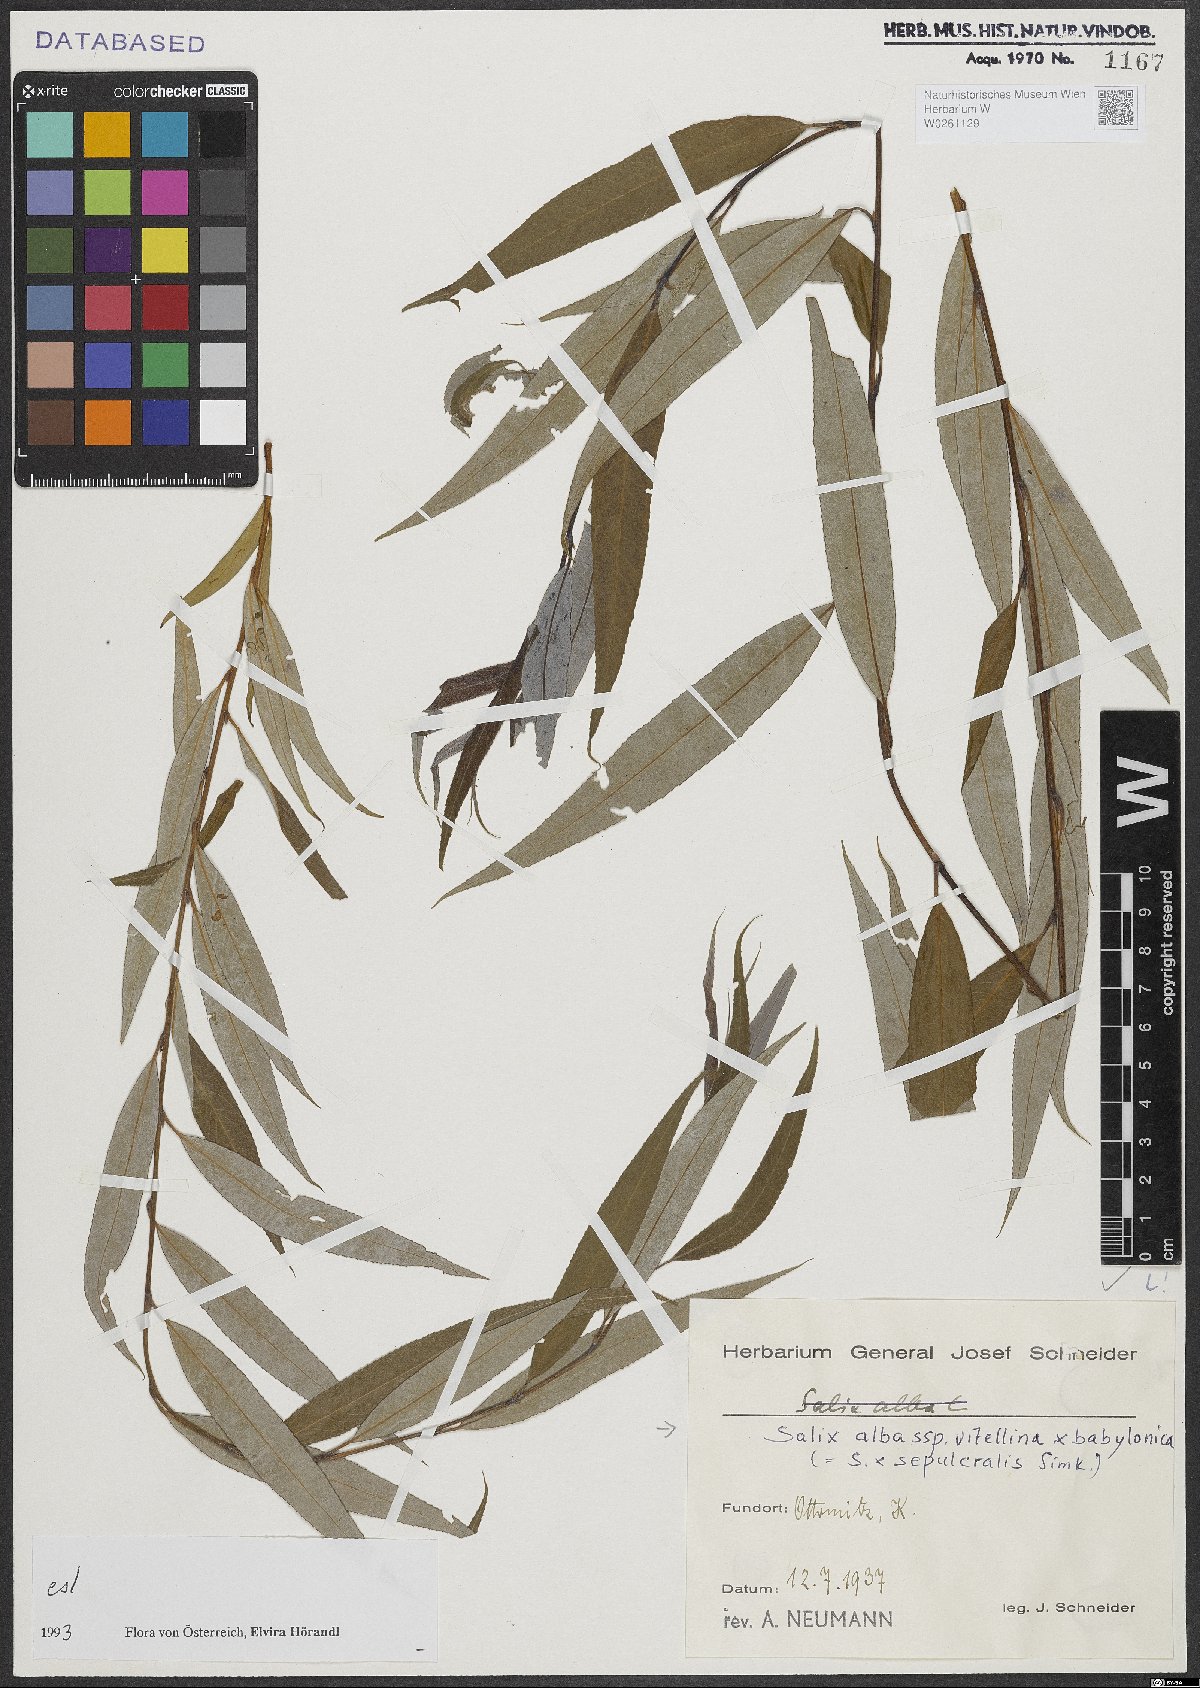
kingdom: Plantae
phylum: Tracheophyta
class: Magnoliopsida
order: Malpighiales
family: Salicaceae
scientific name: Salicaceae
